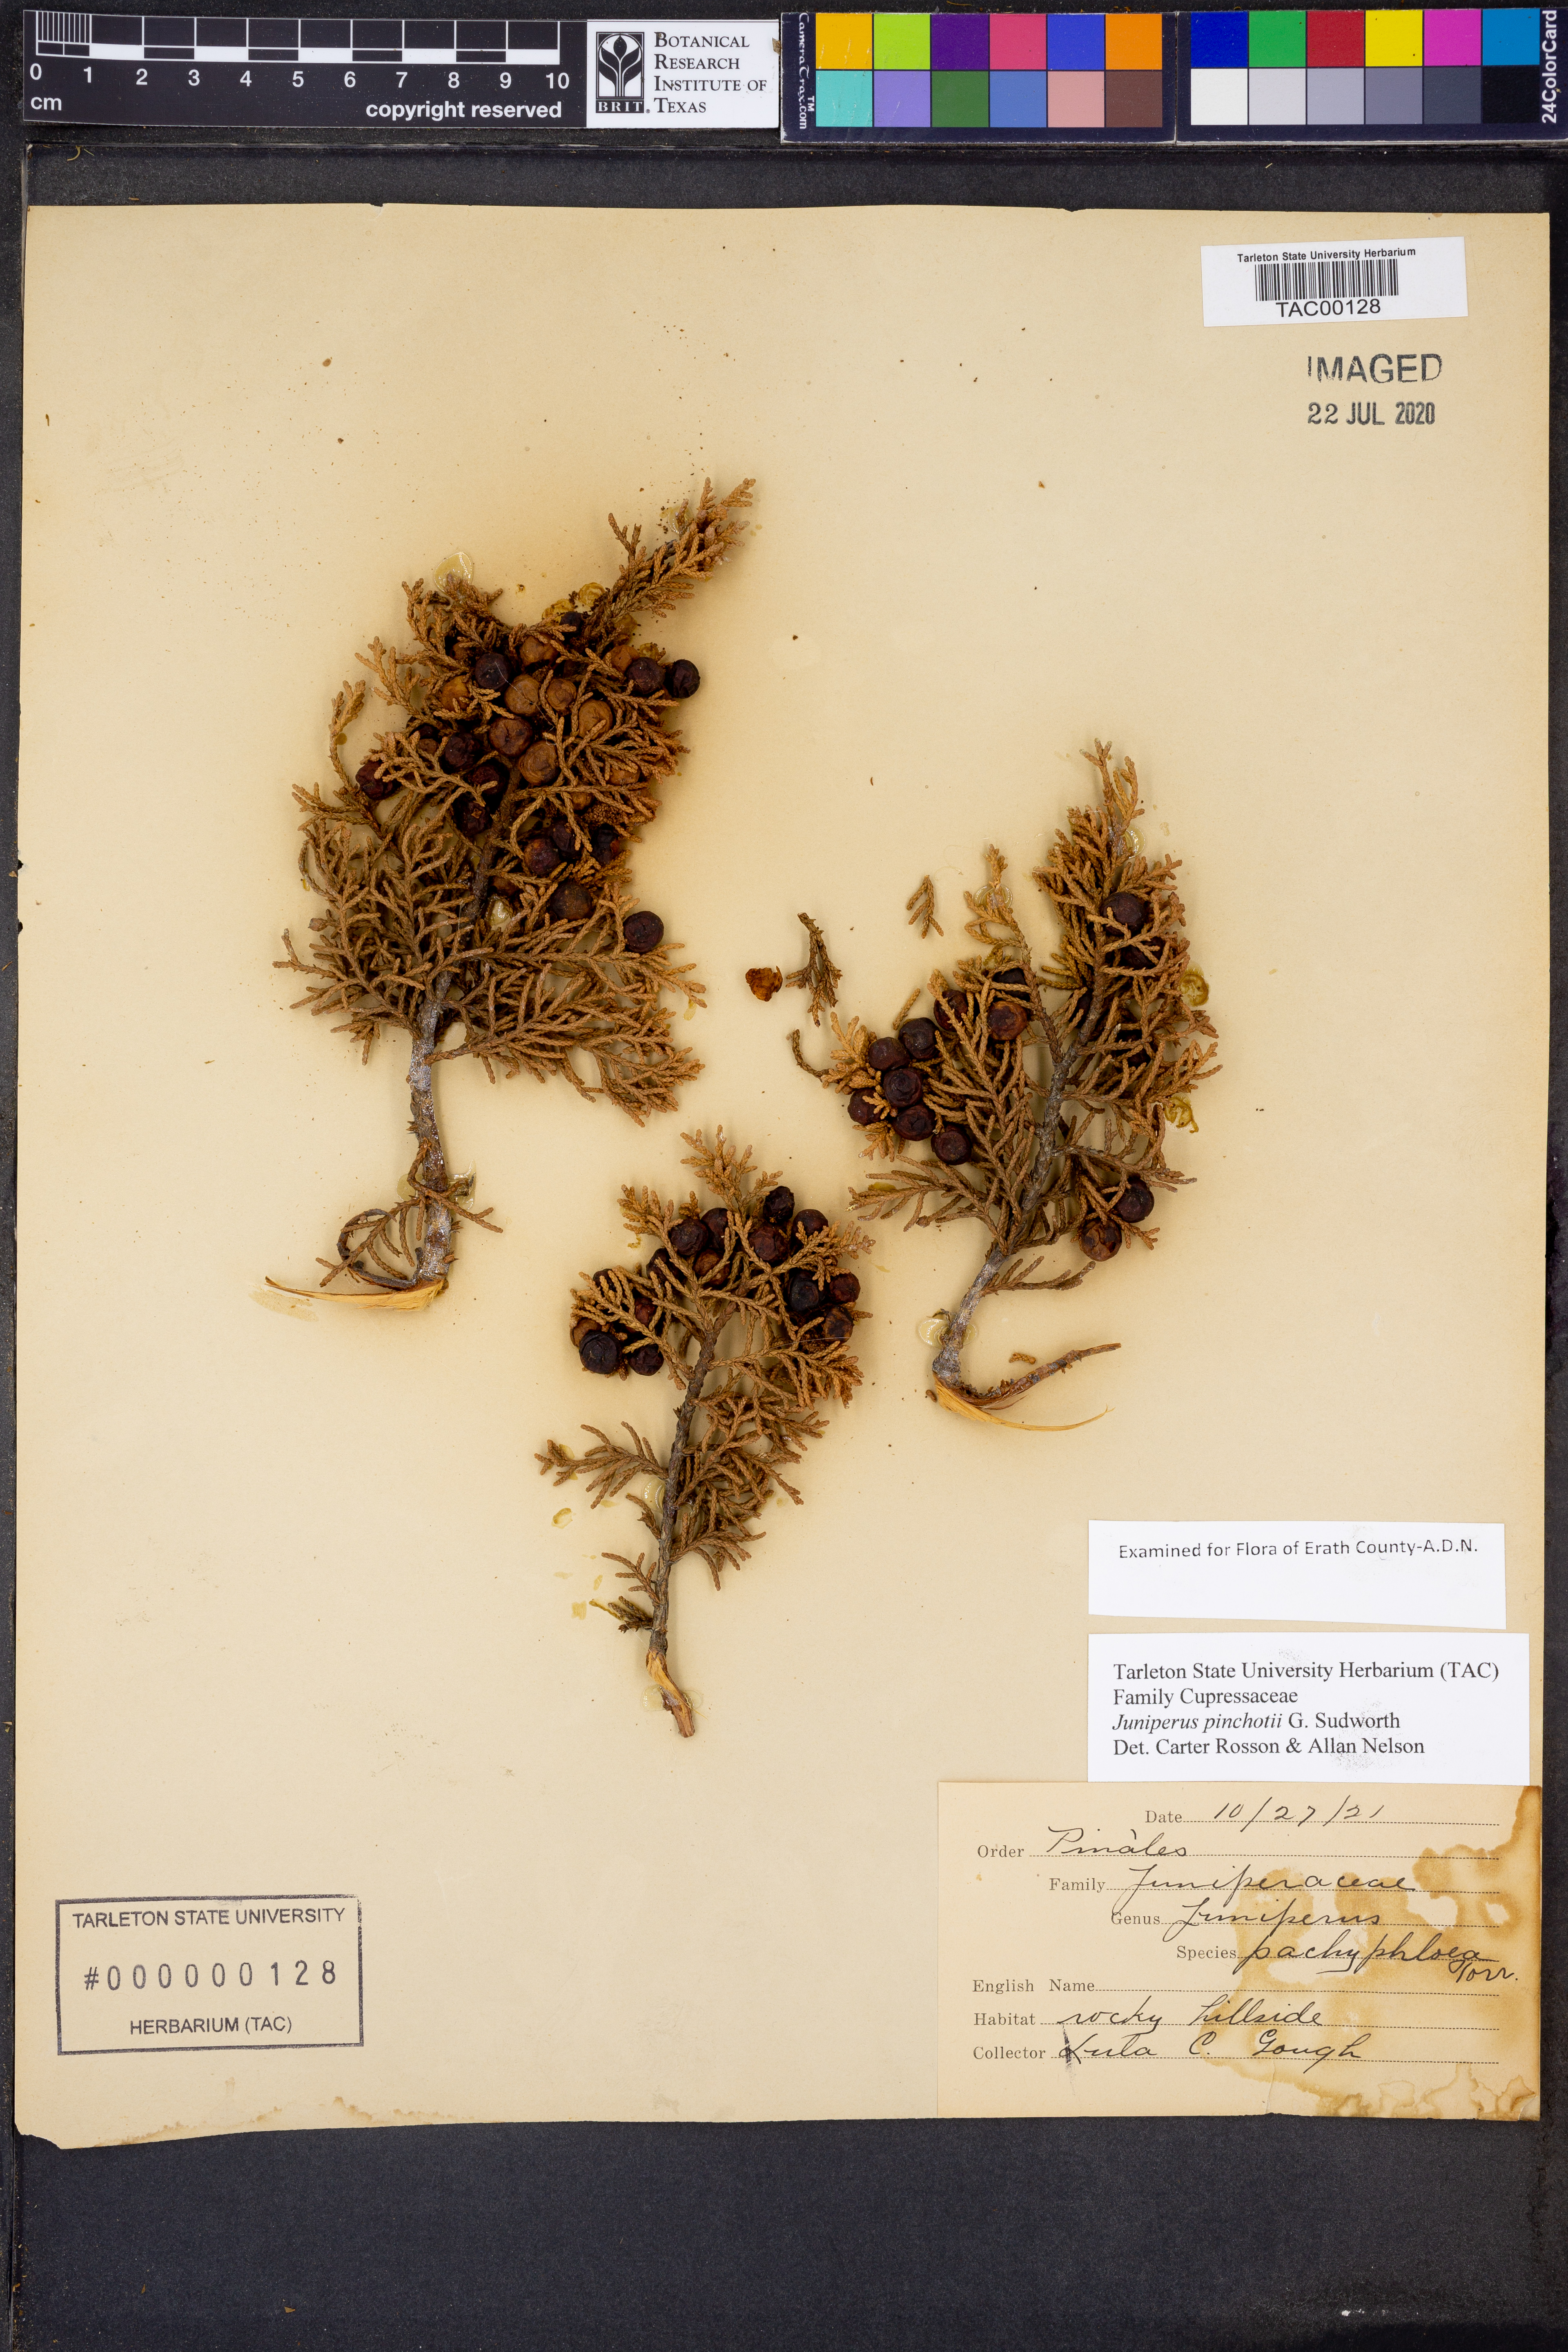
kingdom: Plantae
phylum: Tracheophyta
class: Pinopsida
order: Pinales
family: Cupressaceae
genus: Juniperus
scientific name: Juniperus pinchotii
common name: Pinchot juniper
